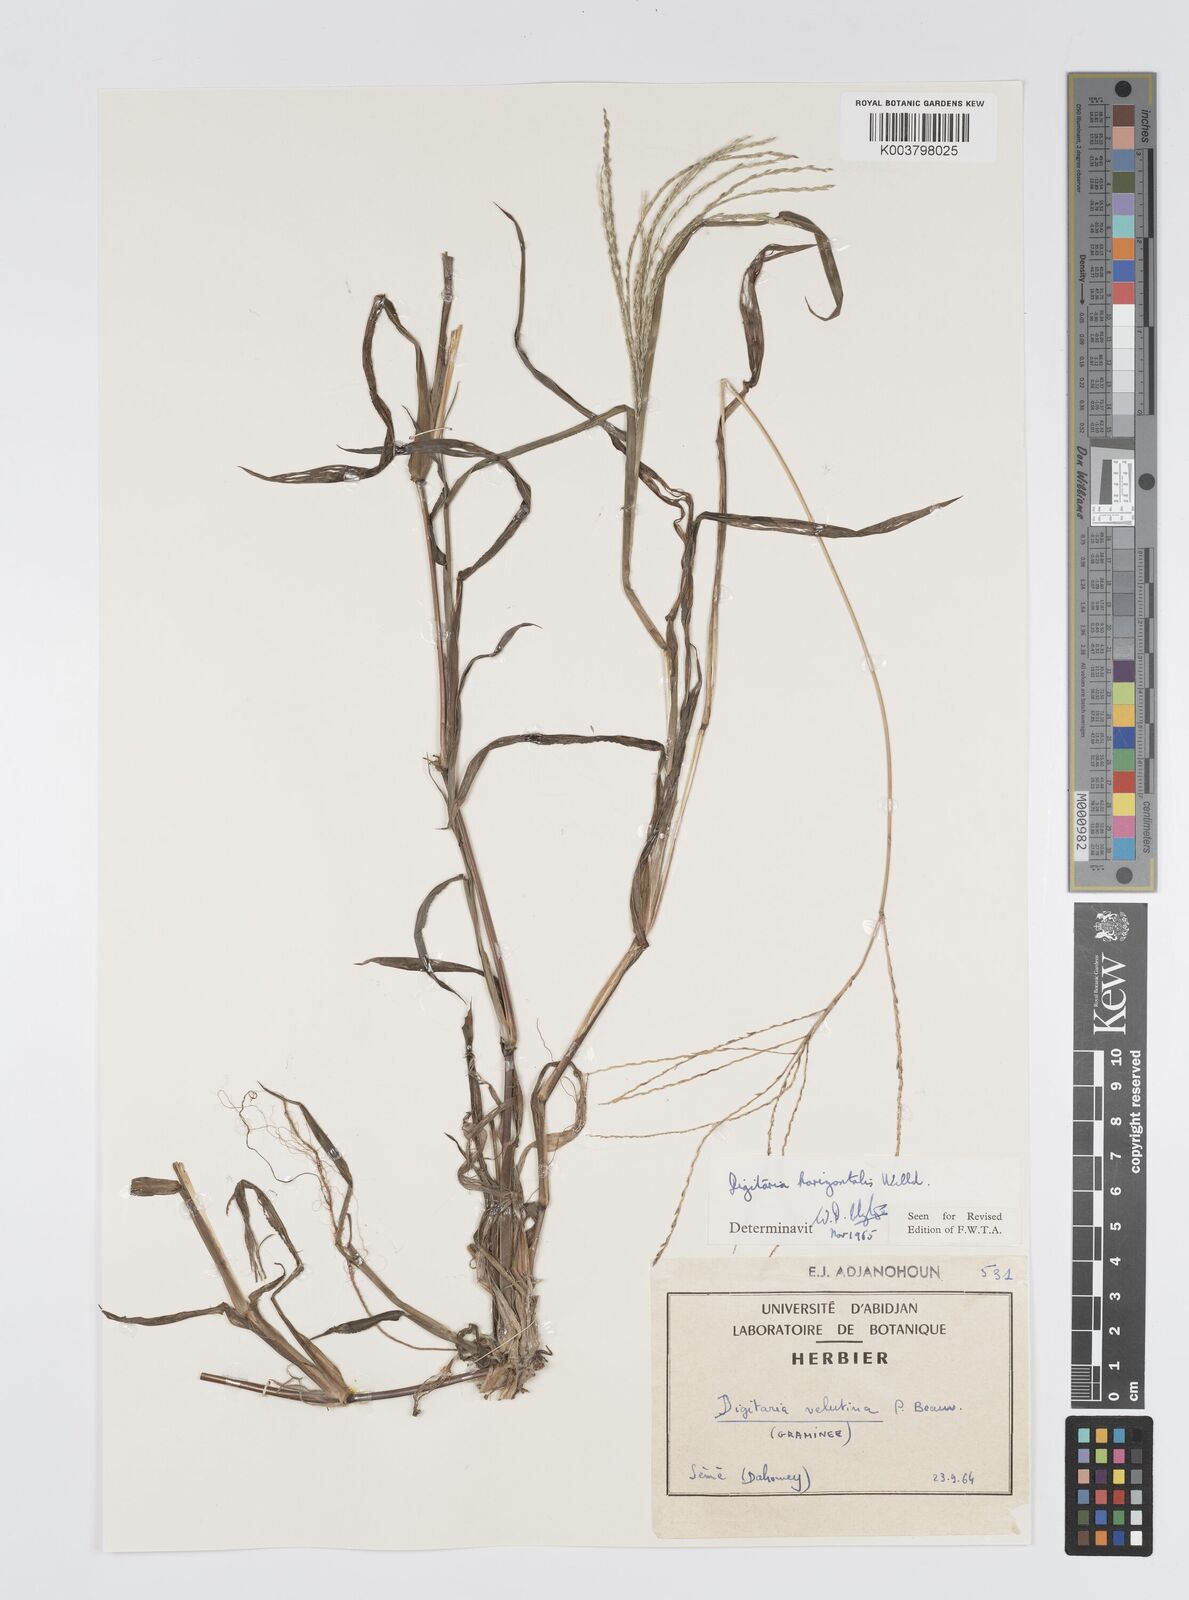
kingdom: Plantae
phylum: Tracheophyta
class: Liliopsida
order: Poales
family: Poaceae
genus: Digitaria
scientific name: Digitaria horizontalis
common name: Jamaican crabgrass
